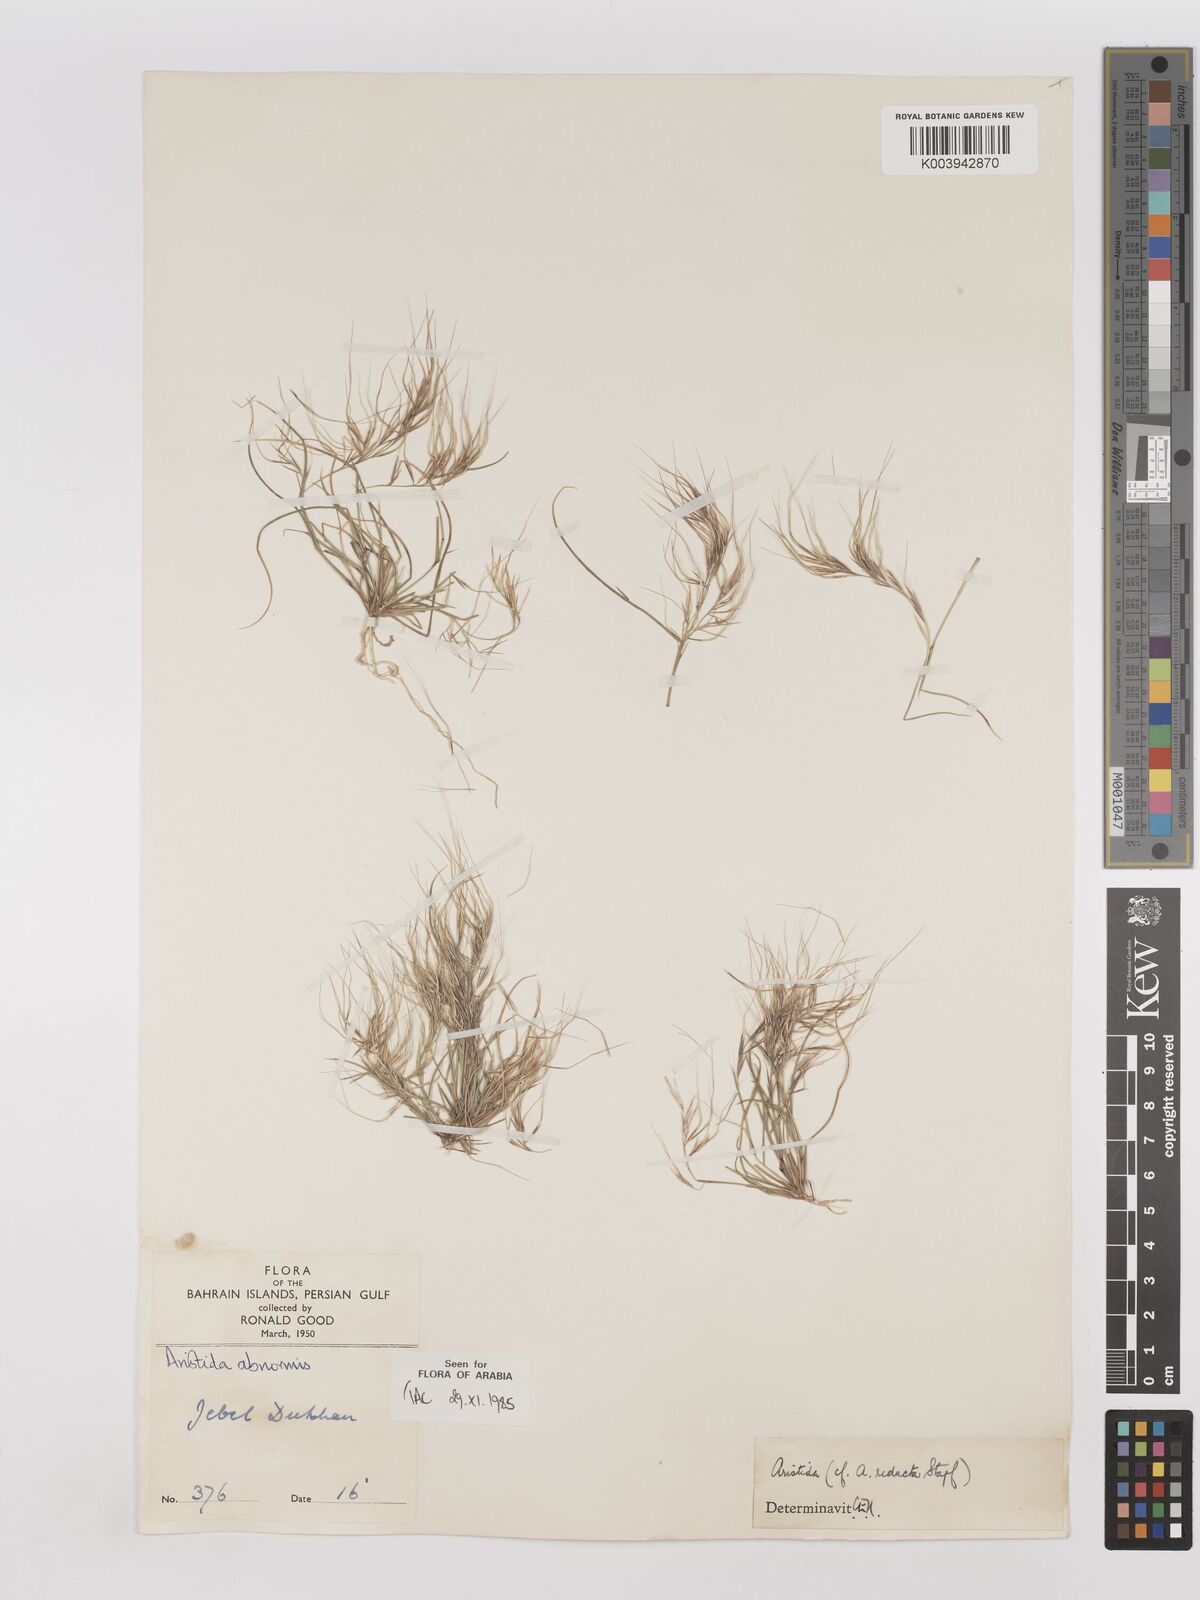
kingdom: Plantae
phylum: Tracheophyta
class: Liliopsida
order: Poales
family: Poaceae
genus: Aristida
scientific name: Aristida abnormis
